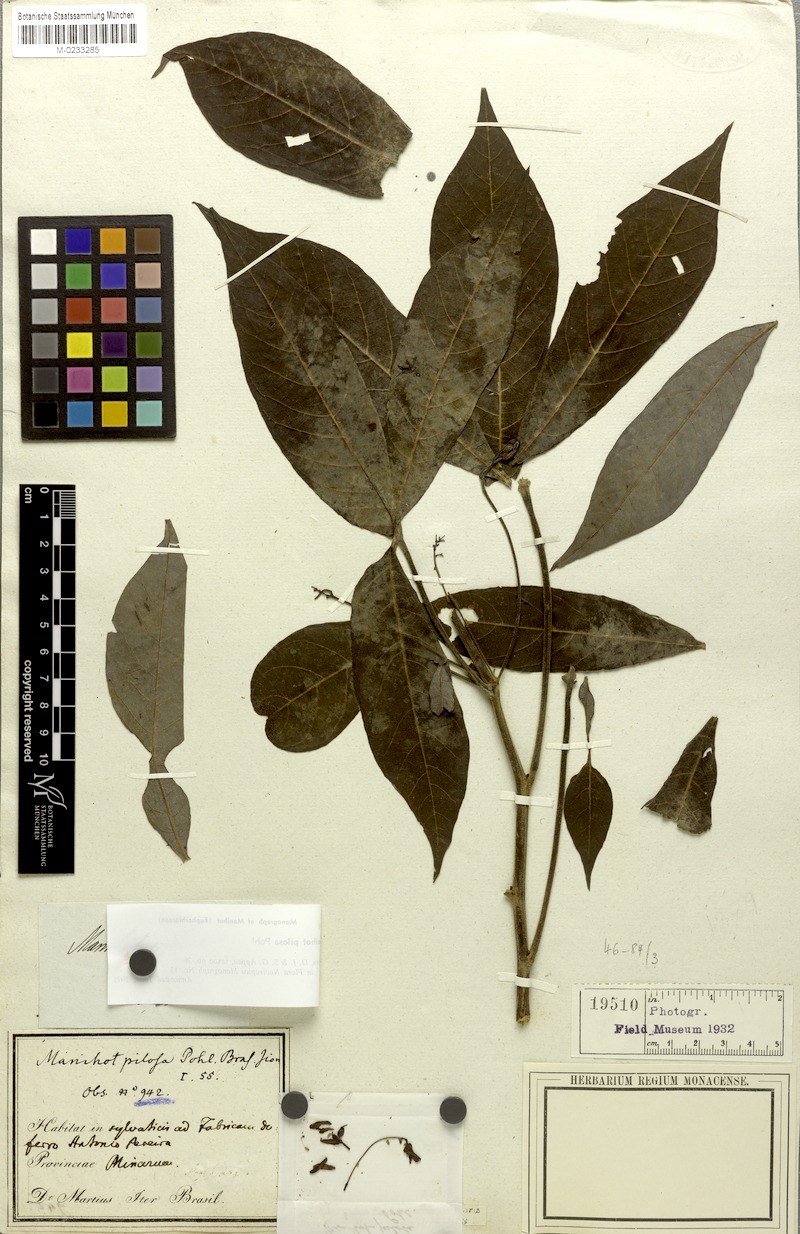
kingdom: Plantae
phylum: Tracheophyta
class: Magnoliopsida
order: Malpighiales
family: Euphorbiaceae
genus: Manihot
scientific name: Manihot pilosa
